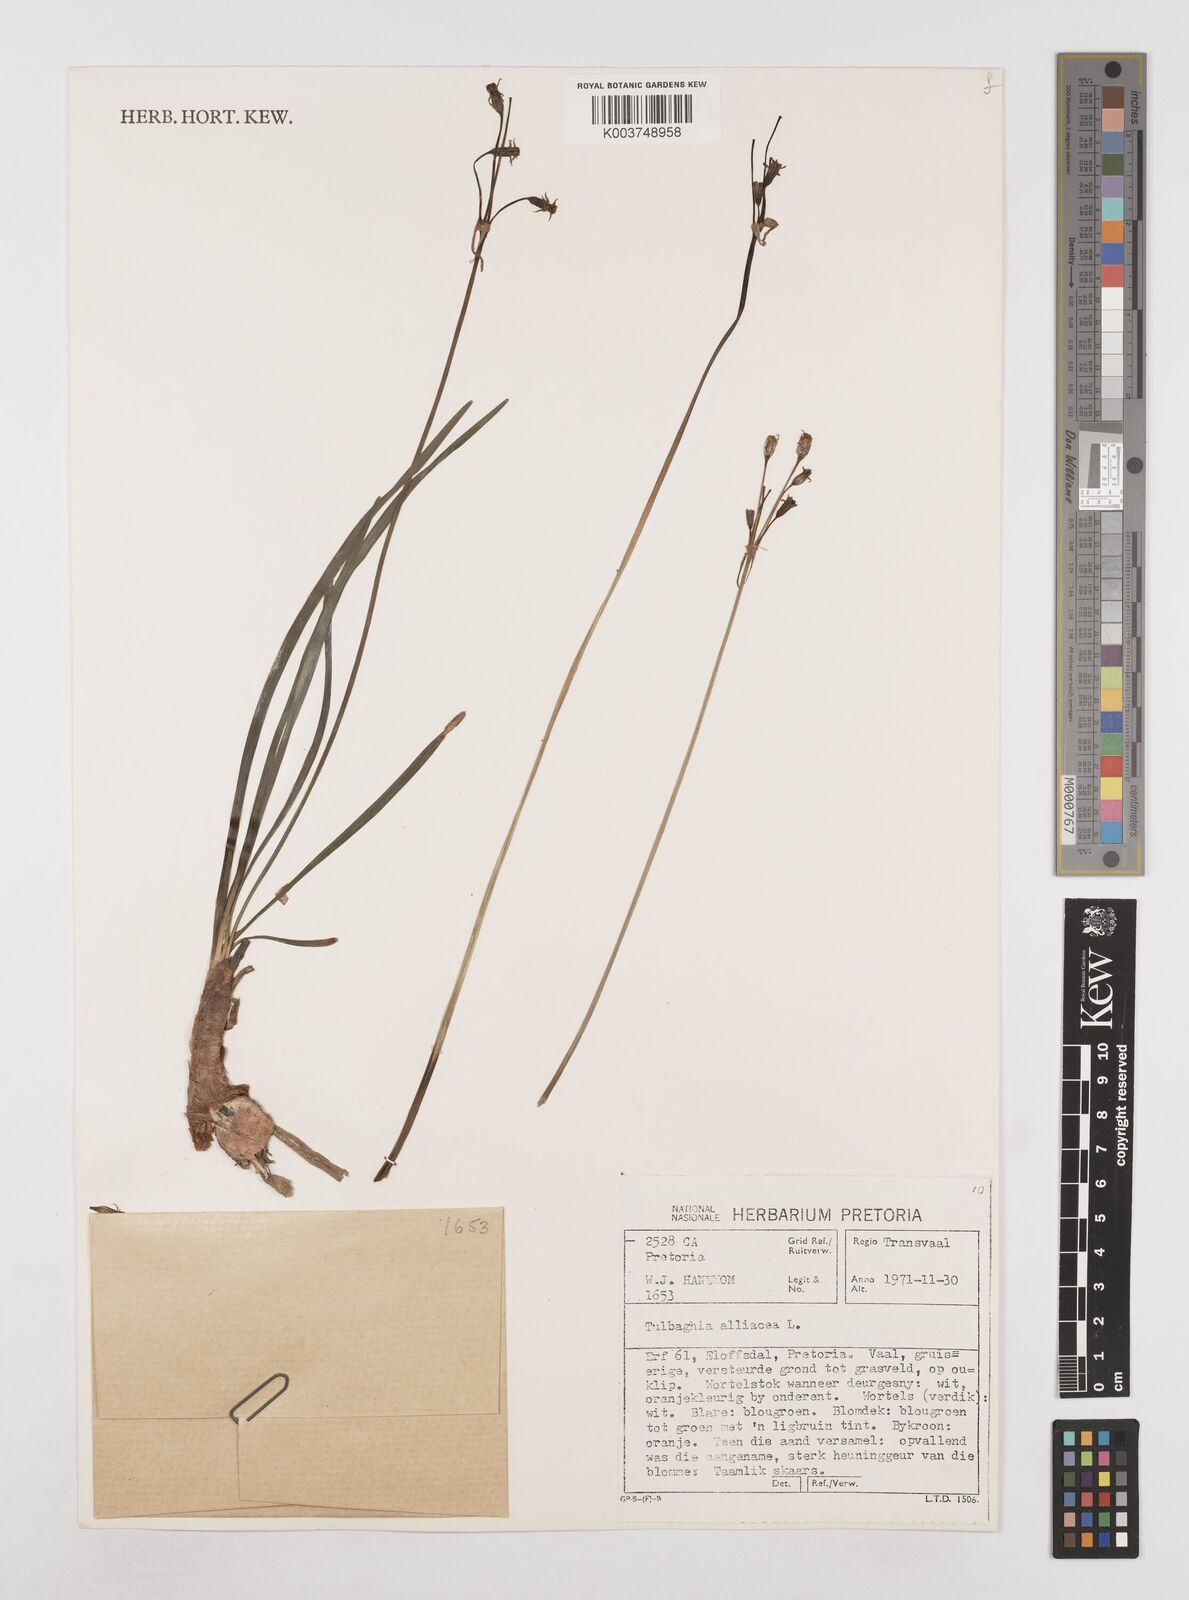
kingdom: Plantae
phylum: Tracheophyta
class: Liliopsida
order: Asparagales
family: Amaryllidaceae
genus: Tulbaghia
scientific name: Tulbaghia alliacea
